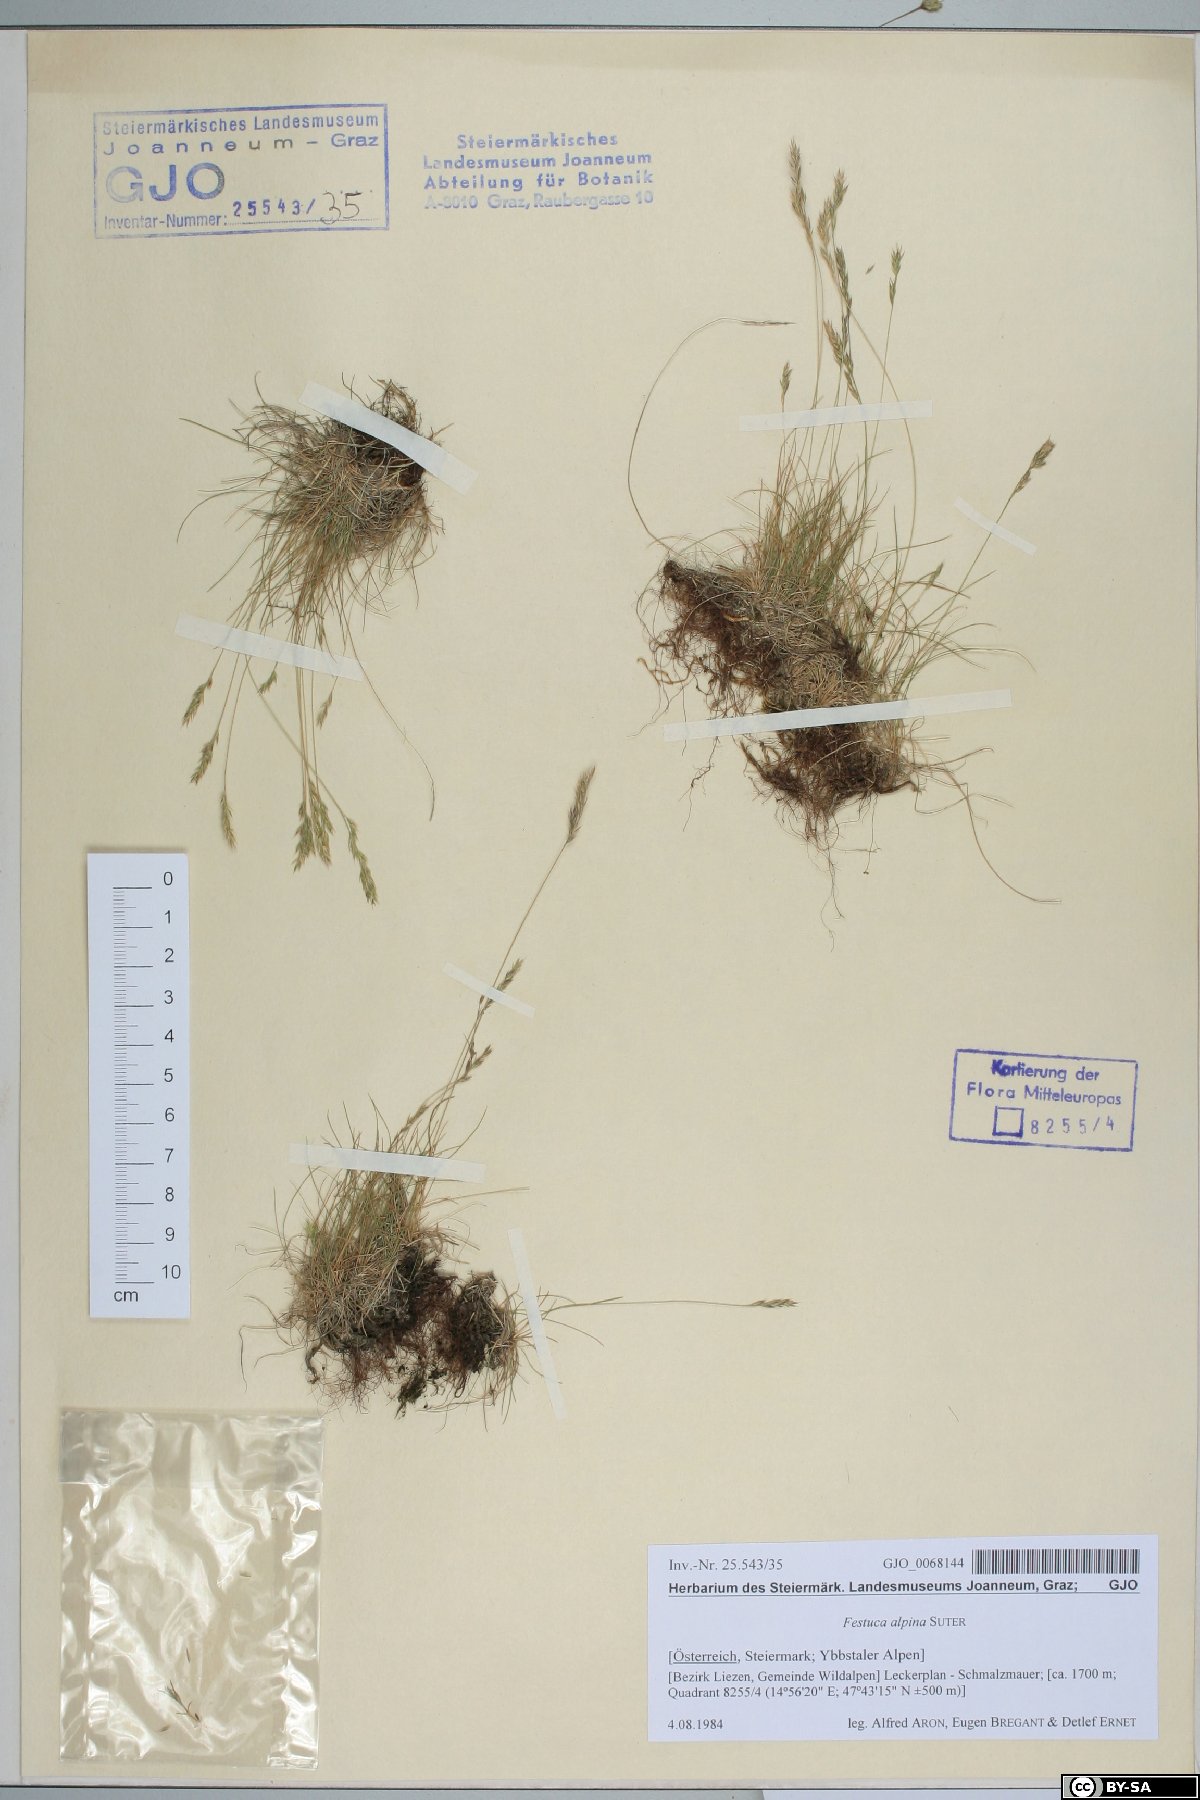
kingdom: Plantae
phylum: Tracheophyta
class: Liliopsida
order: Poales
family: Poaceae
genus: Festuca
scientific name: Festuca alpina
